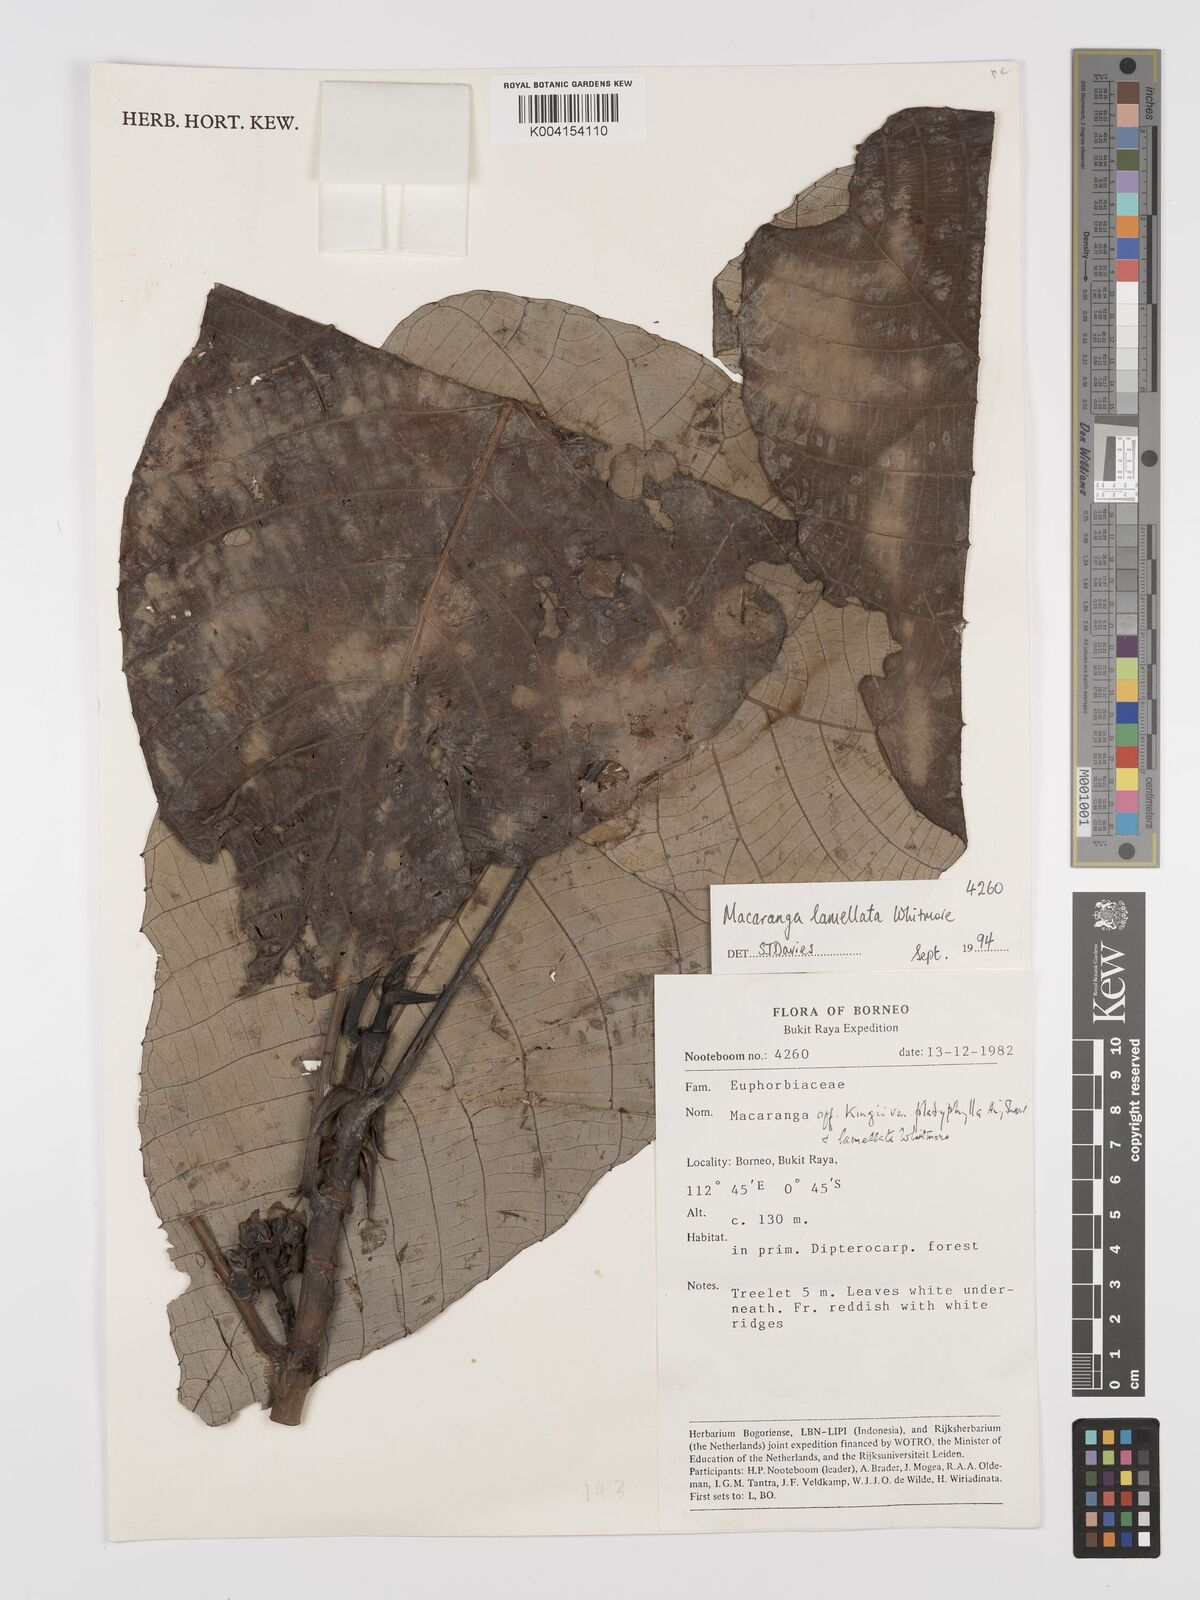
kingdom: Plantae
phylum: Tracheophyta
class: Magnoliopsida
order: Malpighiales
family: Euphorbiaceae
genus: Macaranga
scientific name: Macaranga lamellata
